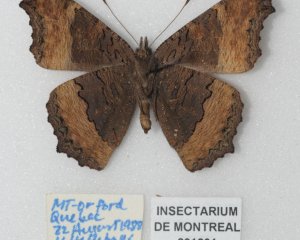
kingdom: Animalia
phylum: Arthropoda
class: Insecta
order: Lepidoptera
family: Nymphalidae
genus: Aglais
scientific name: Aglais milberti
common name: Milbert's Tortoiseshell
